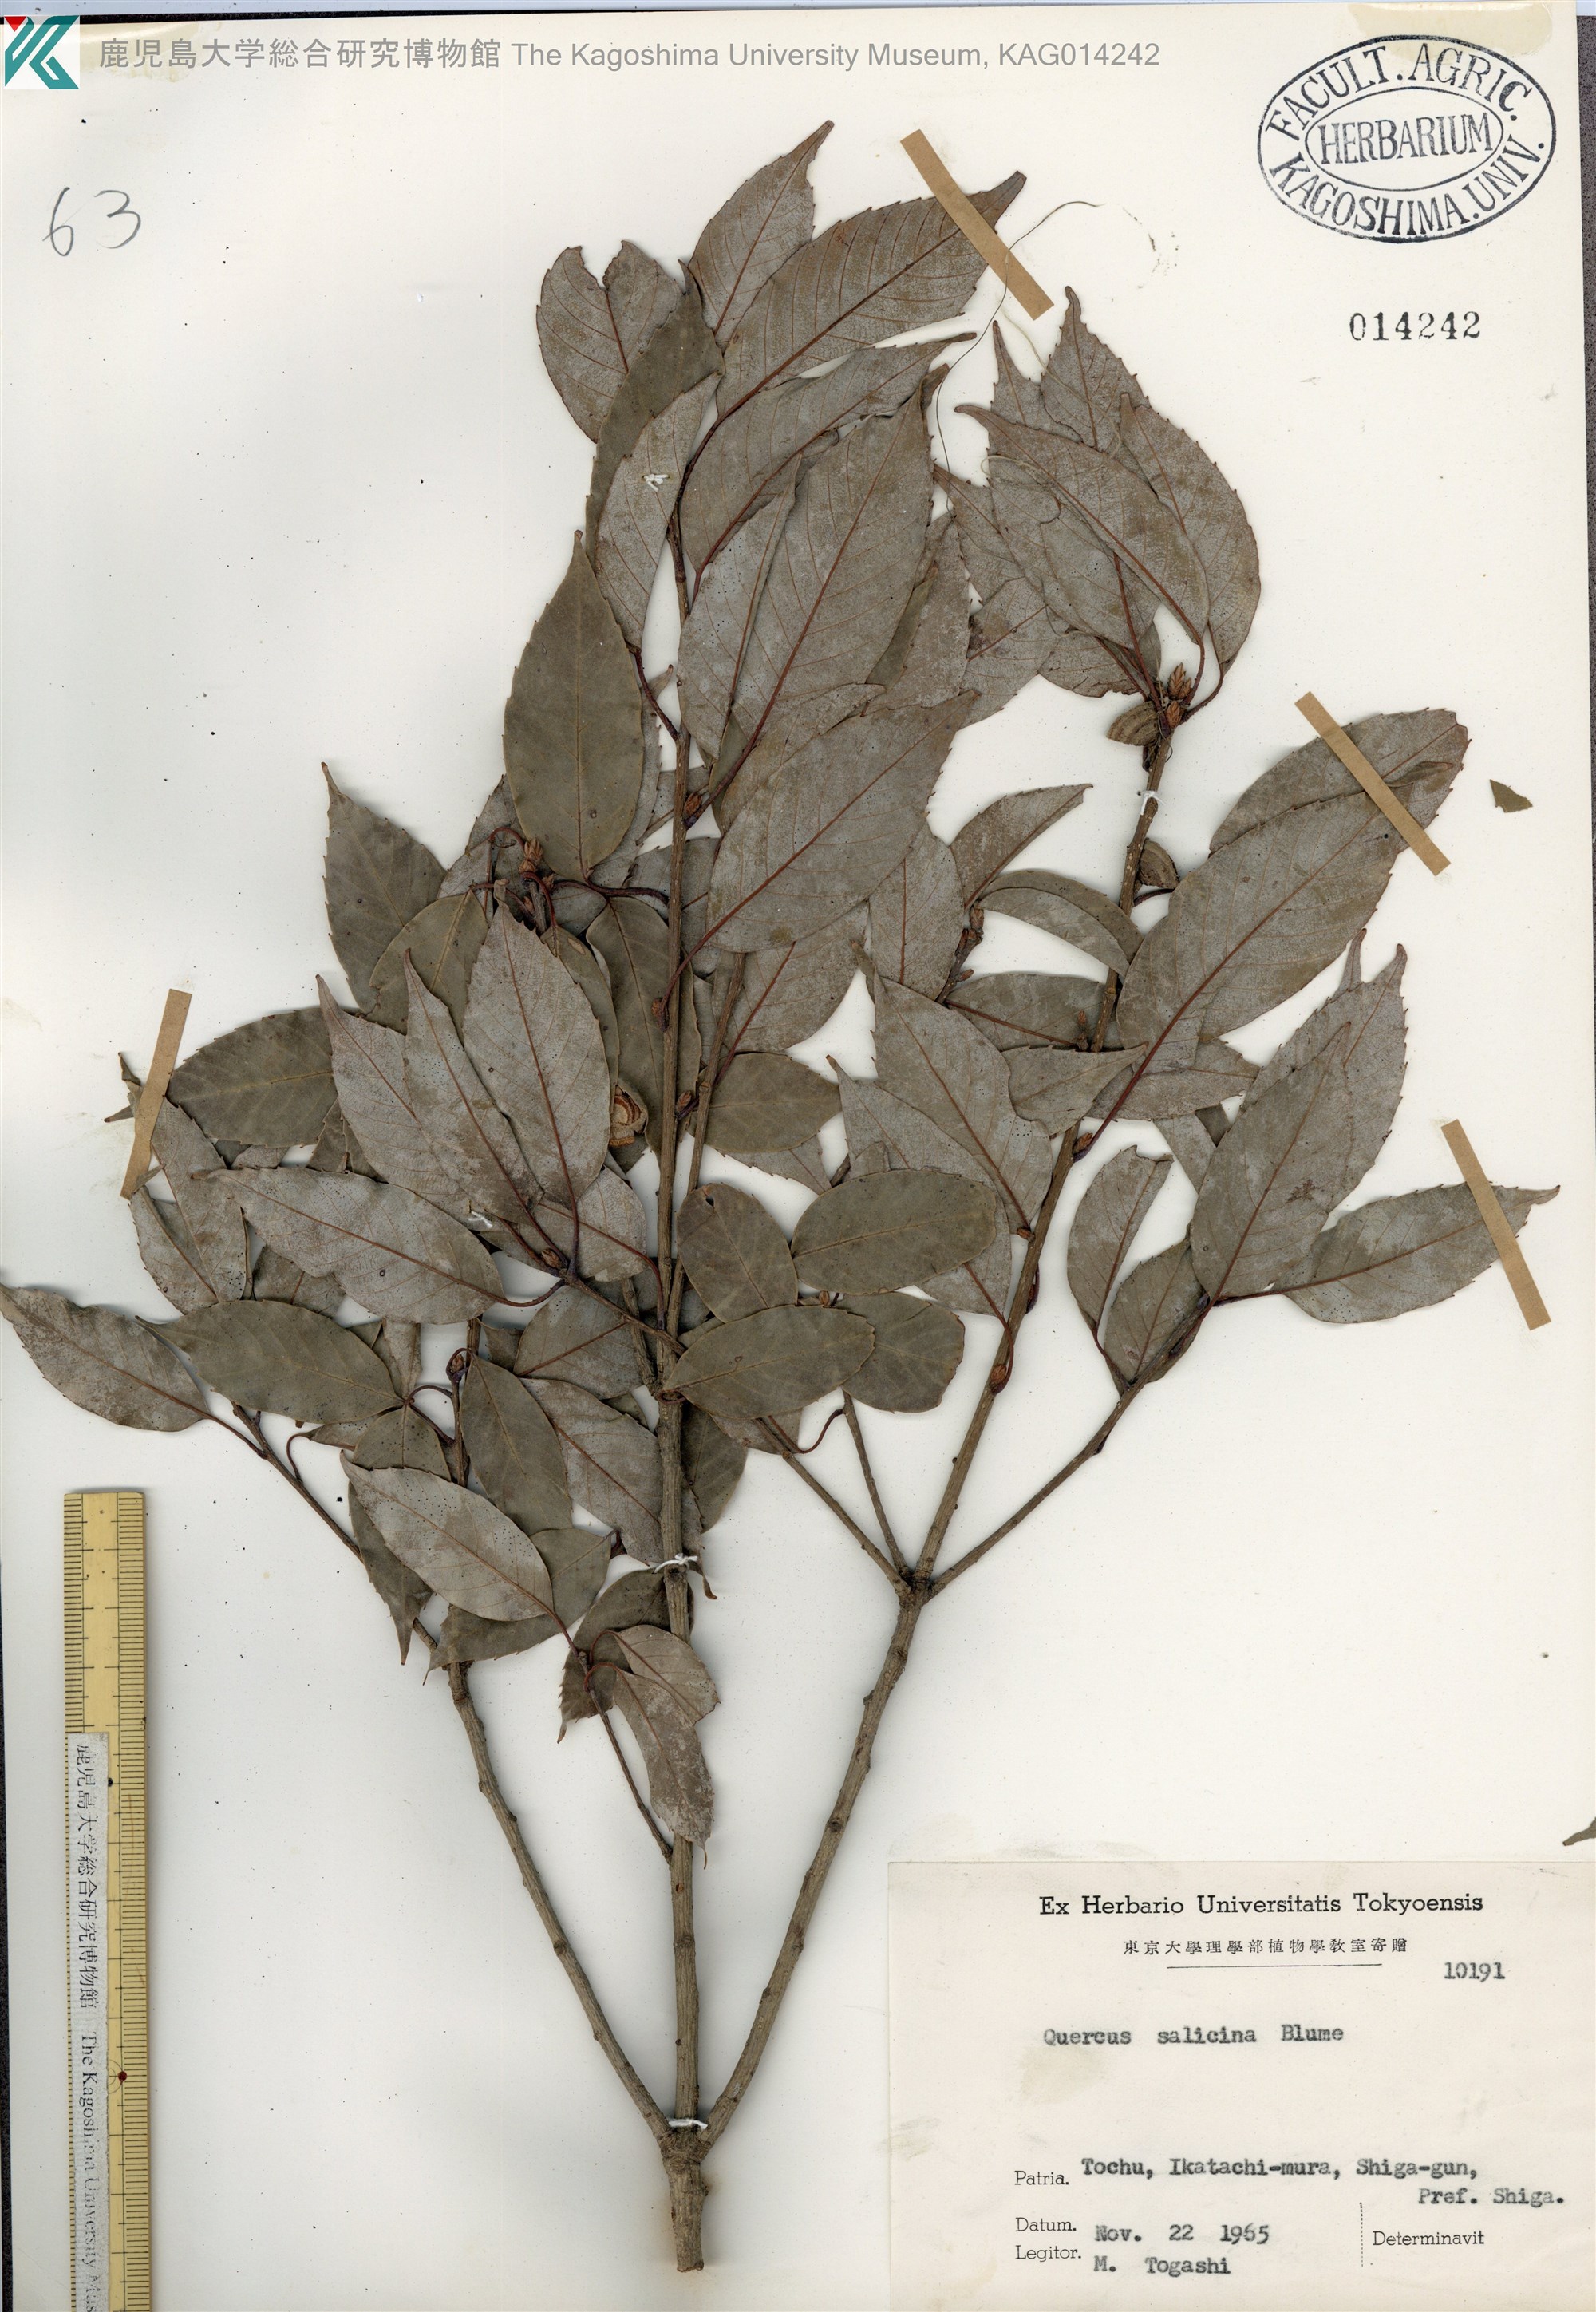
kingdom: Plantae
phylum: Tracheophyta
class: Magnoliopsida
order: Fagales
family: Fagaceae
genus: Quercus
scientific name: Quercus salicina
